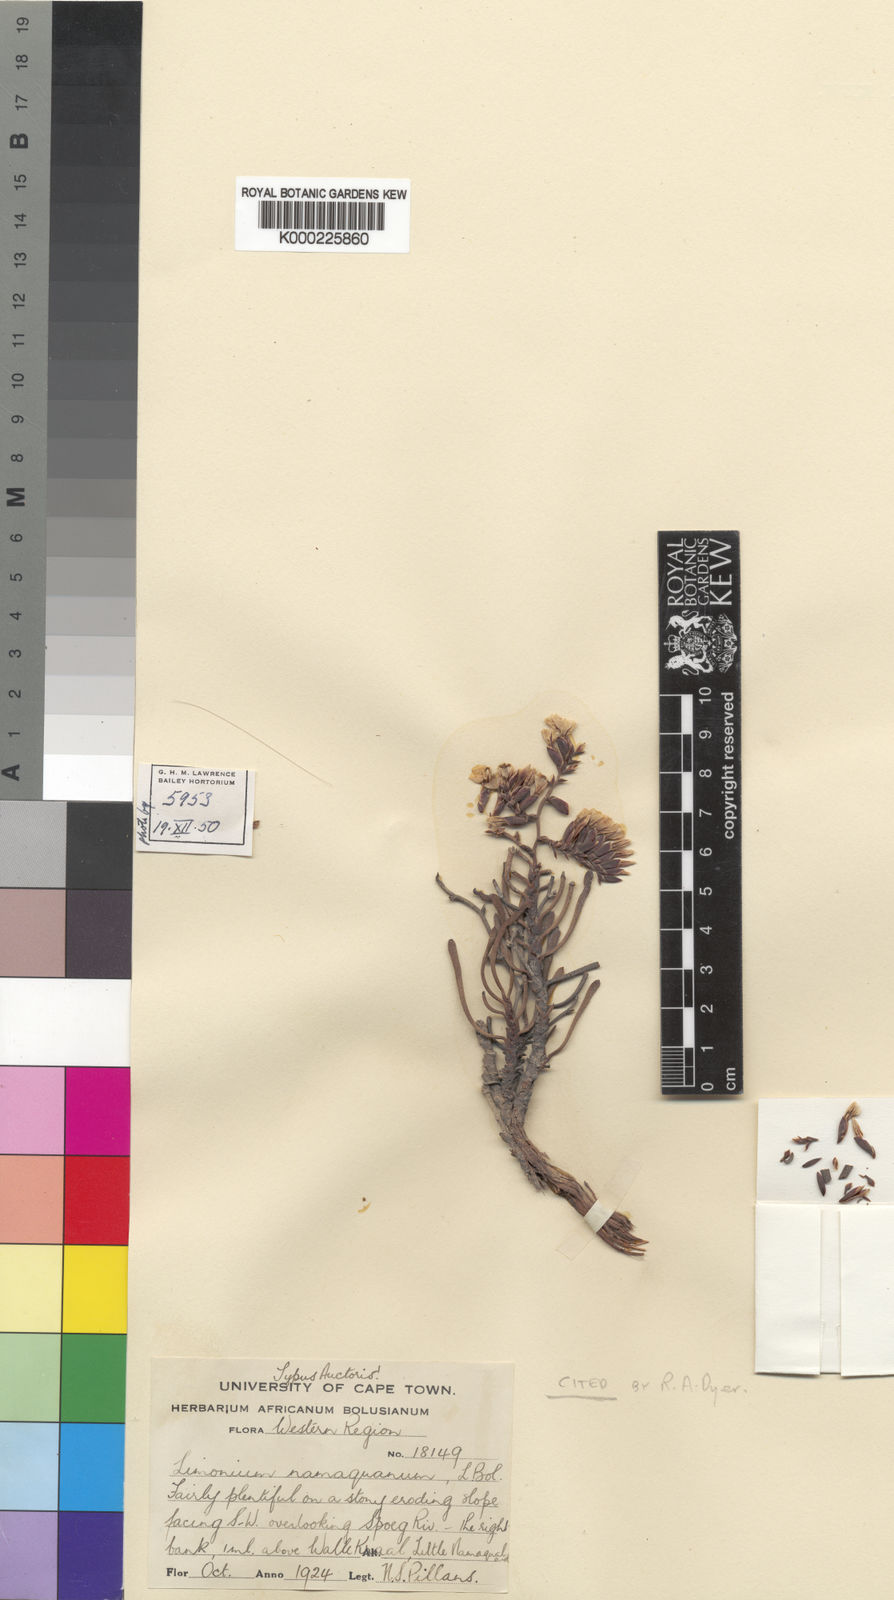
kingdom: Plantae
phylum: Tracheophyta
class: Magnoliopsida
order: Caryophyllales
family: Plumbaginaceae
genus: Limonium
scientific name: Limonium namaquanum
